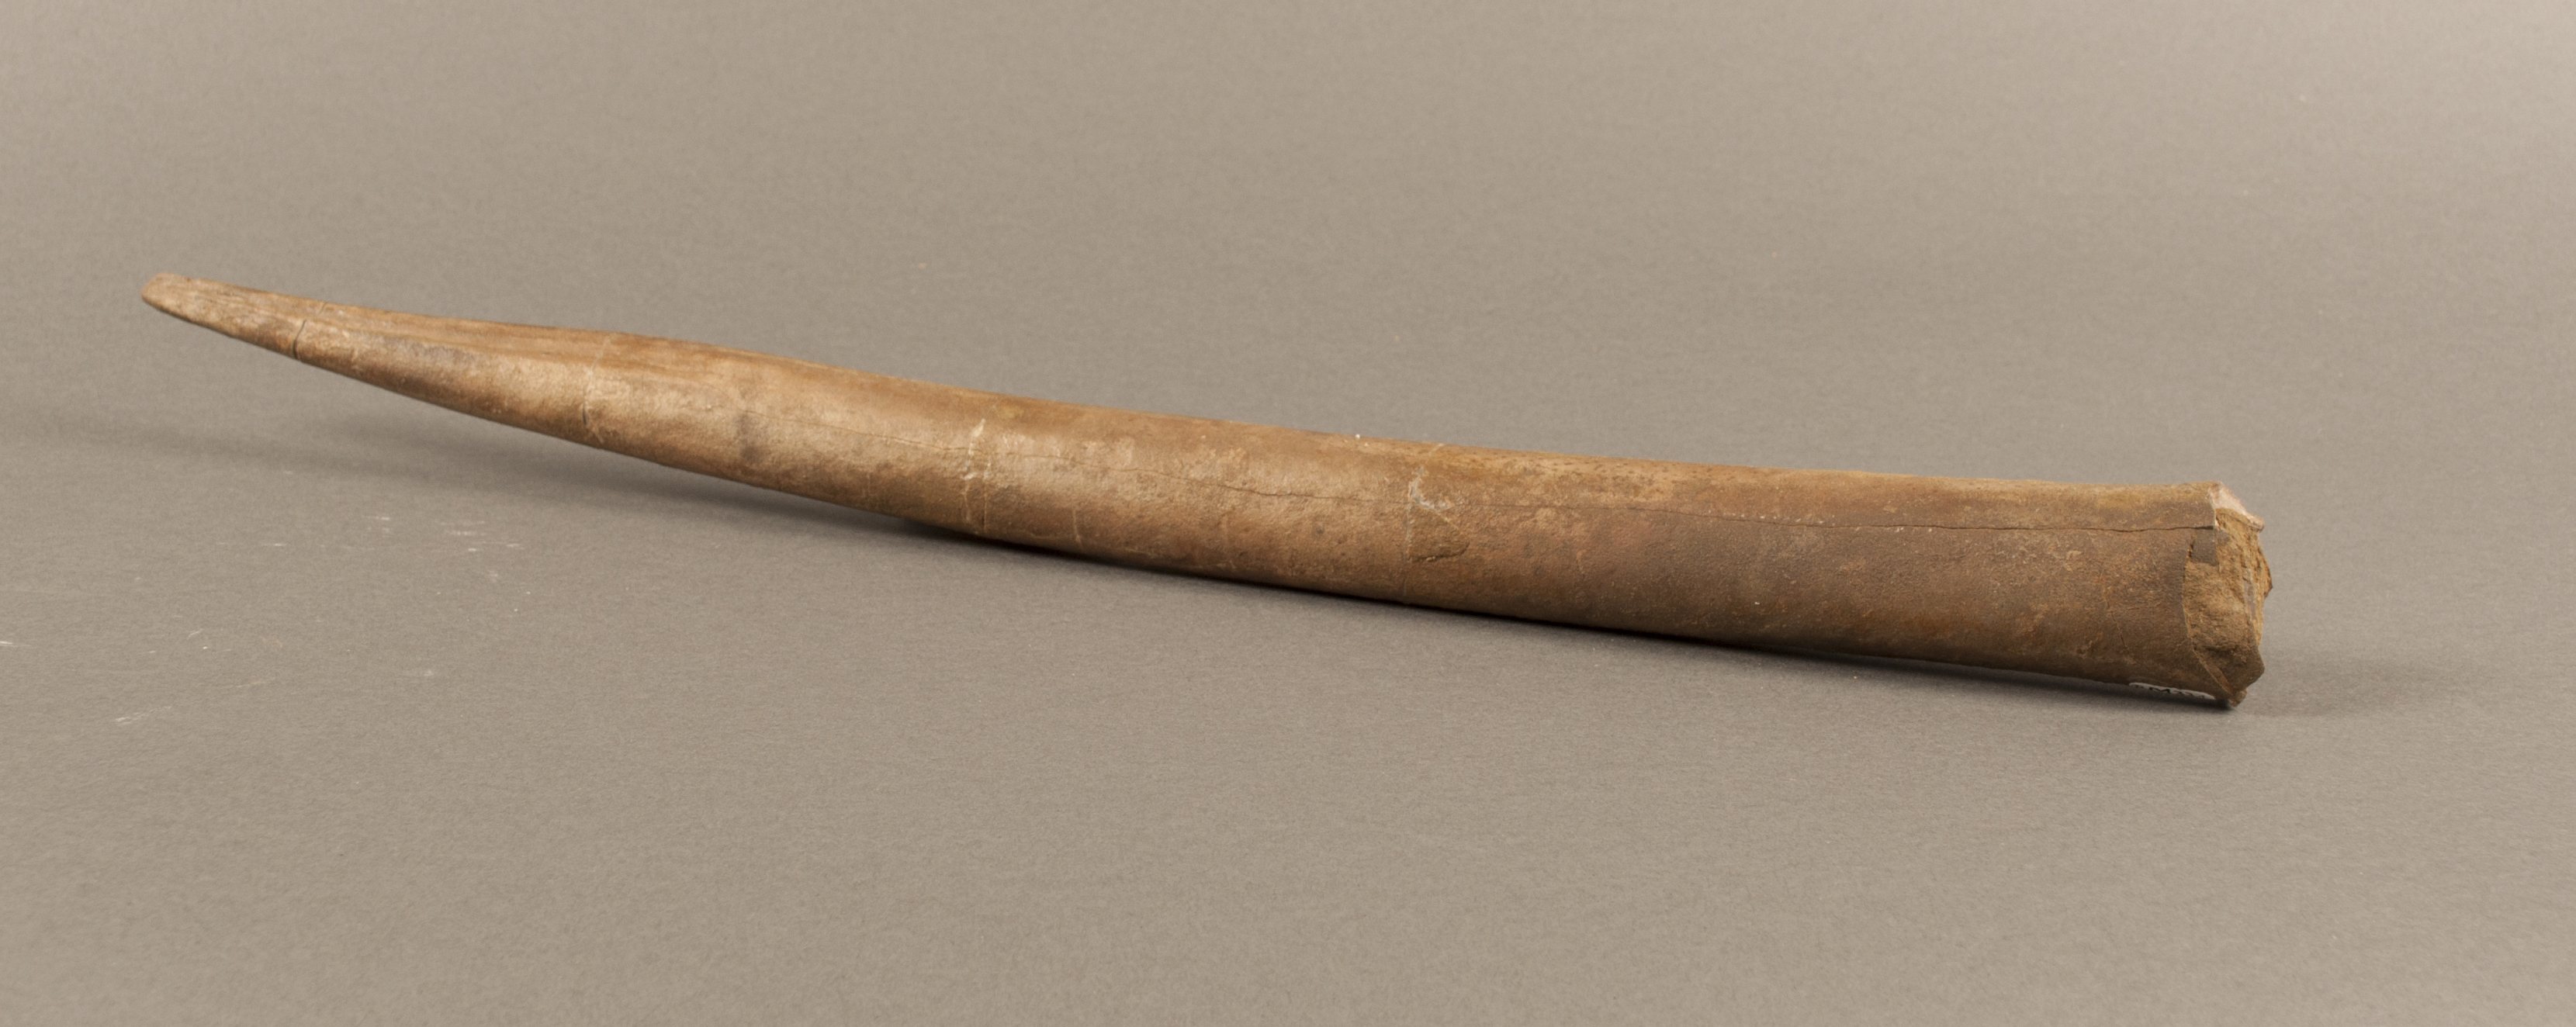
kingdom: Animalia
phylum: Mollusca
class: Cephalopoda
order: Belemnitida
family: Megateuthididae
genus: Megateuthis
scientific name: Megateuthis
